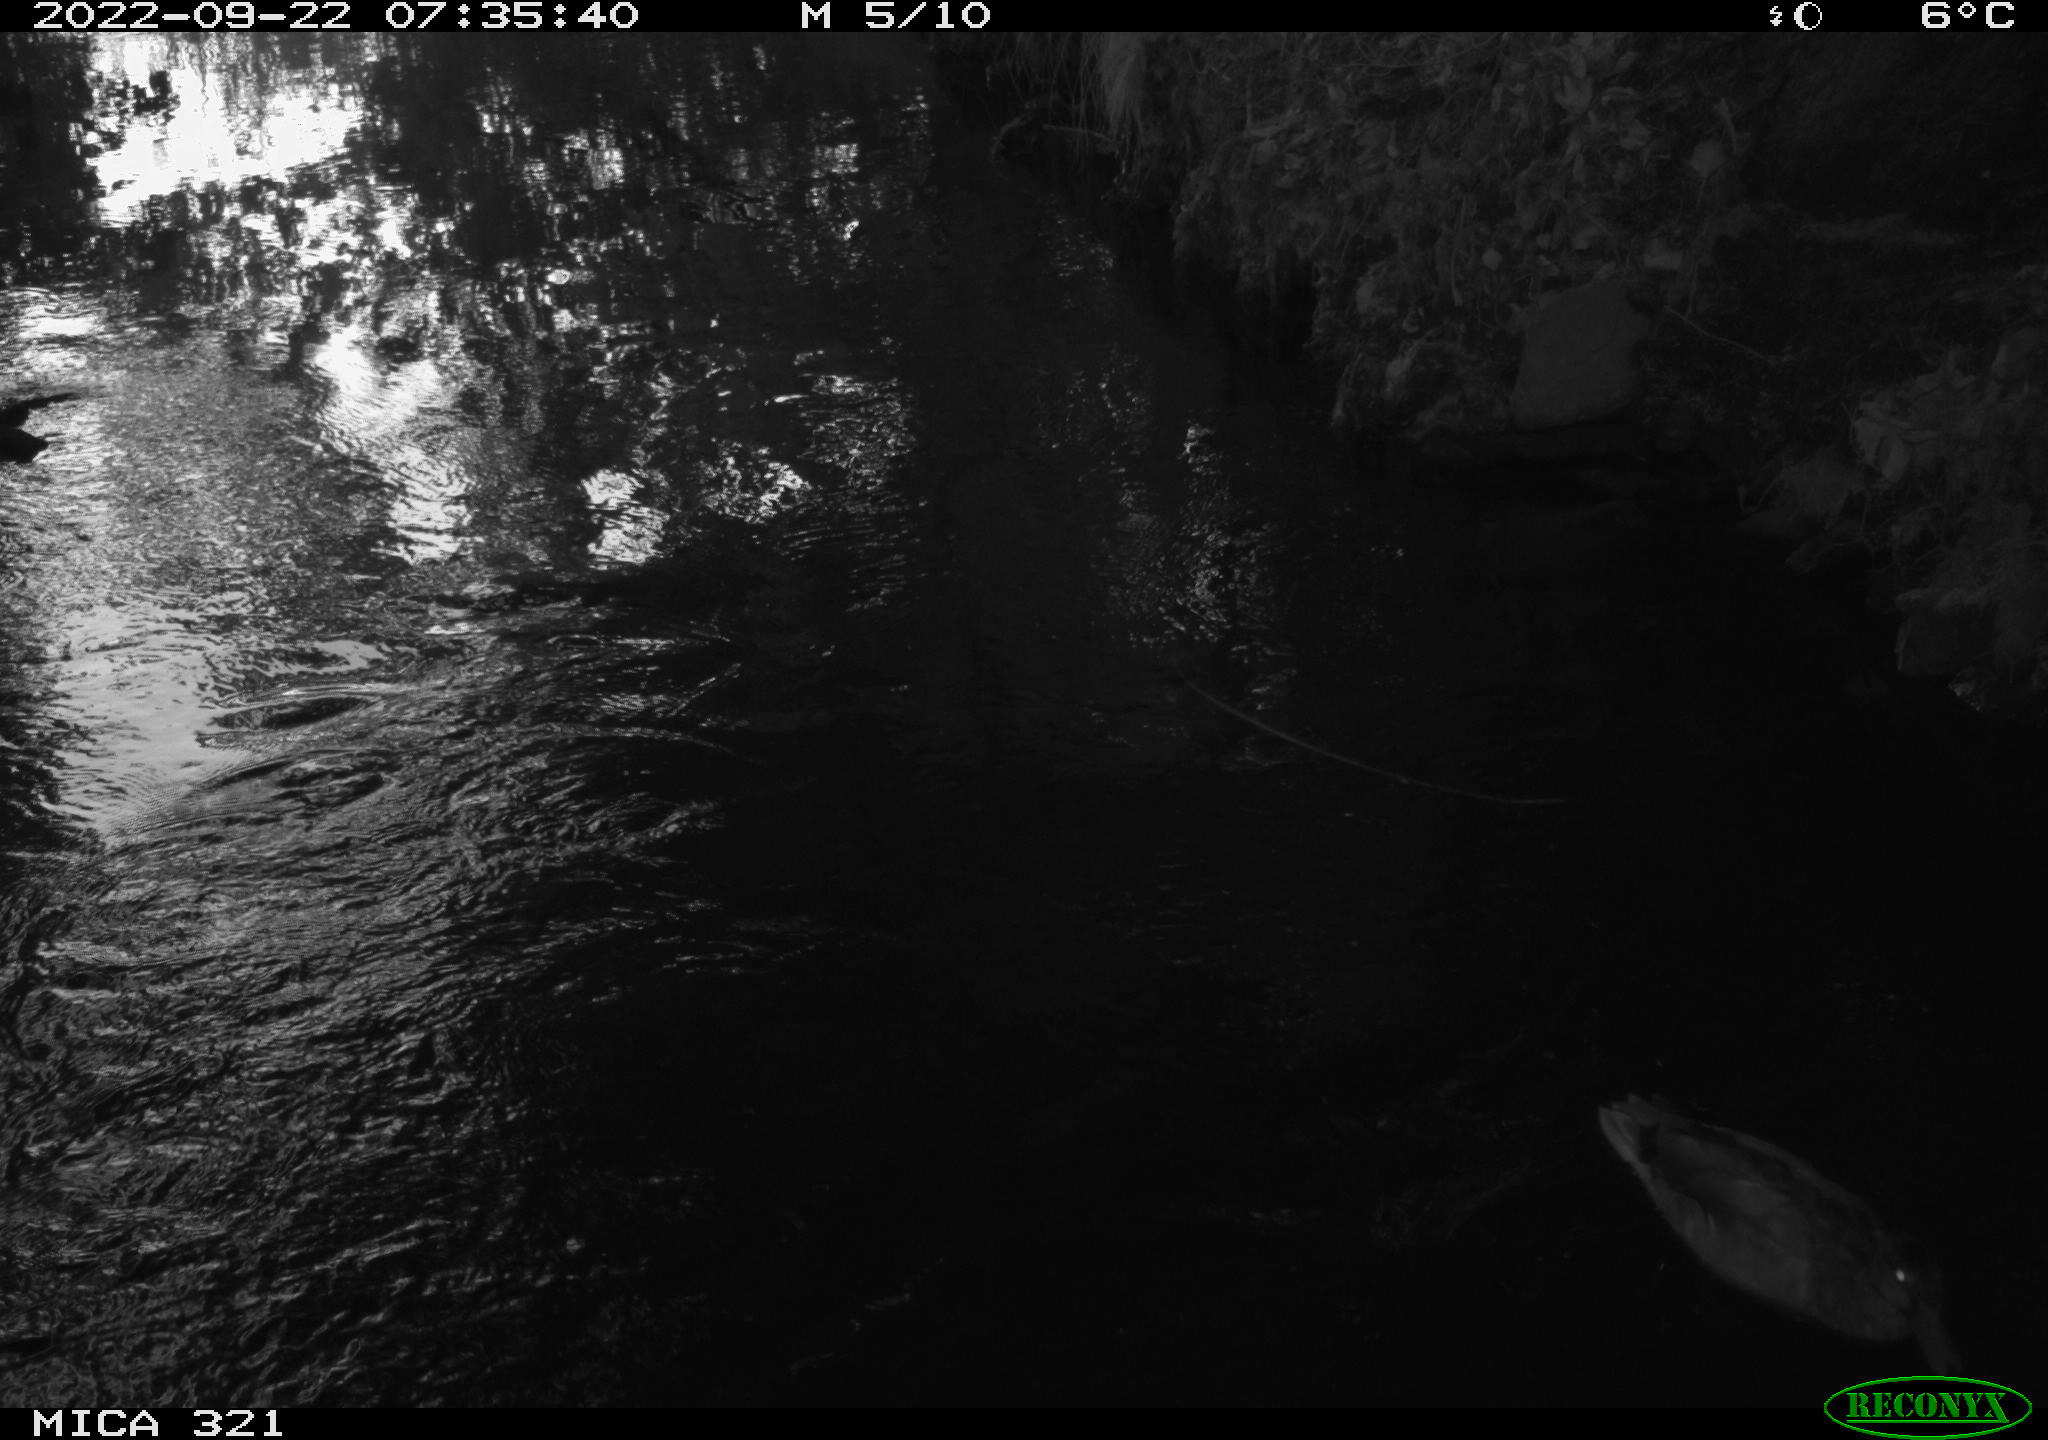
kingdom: Animalia
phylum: Chordata
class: Aves
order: Anseriformes
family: Anatidae
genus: Anas
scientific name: Anas
